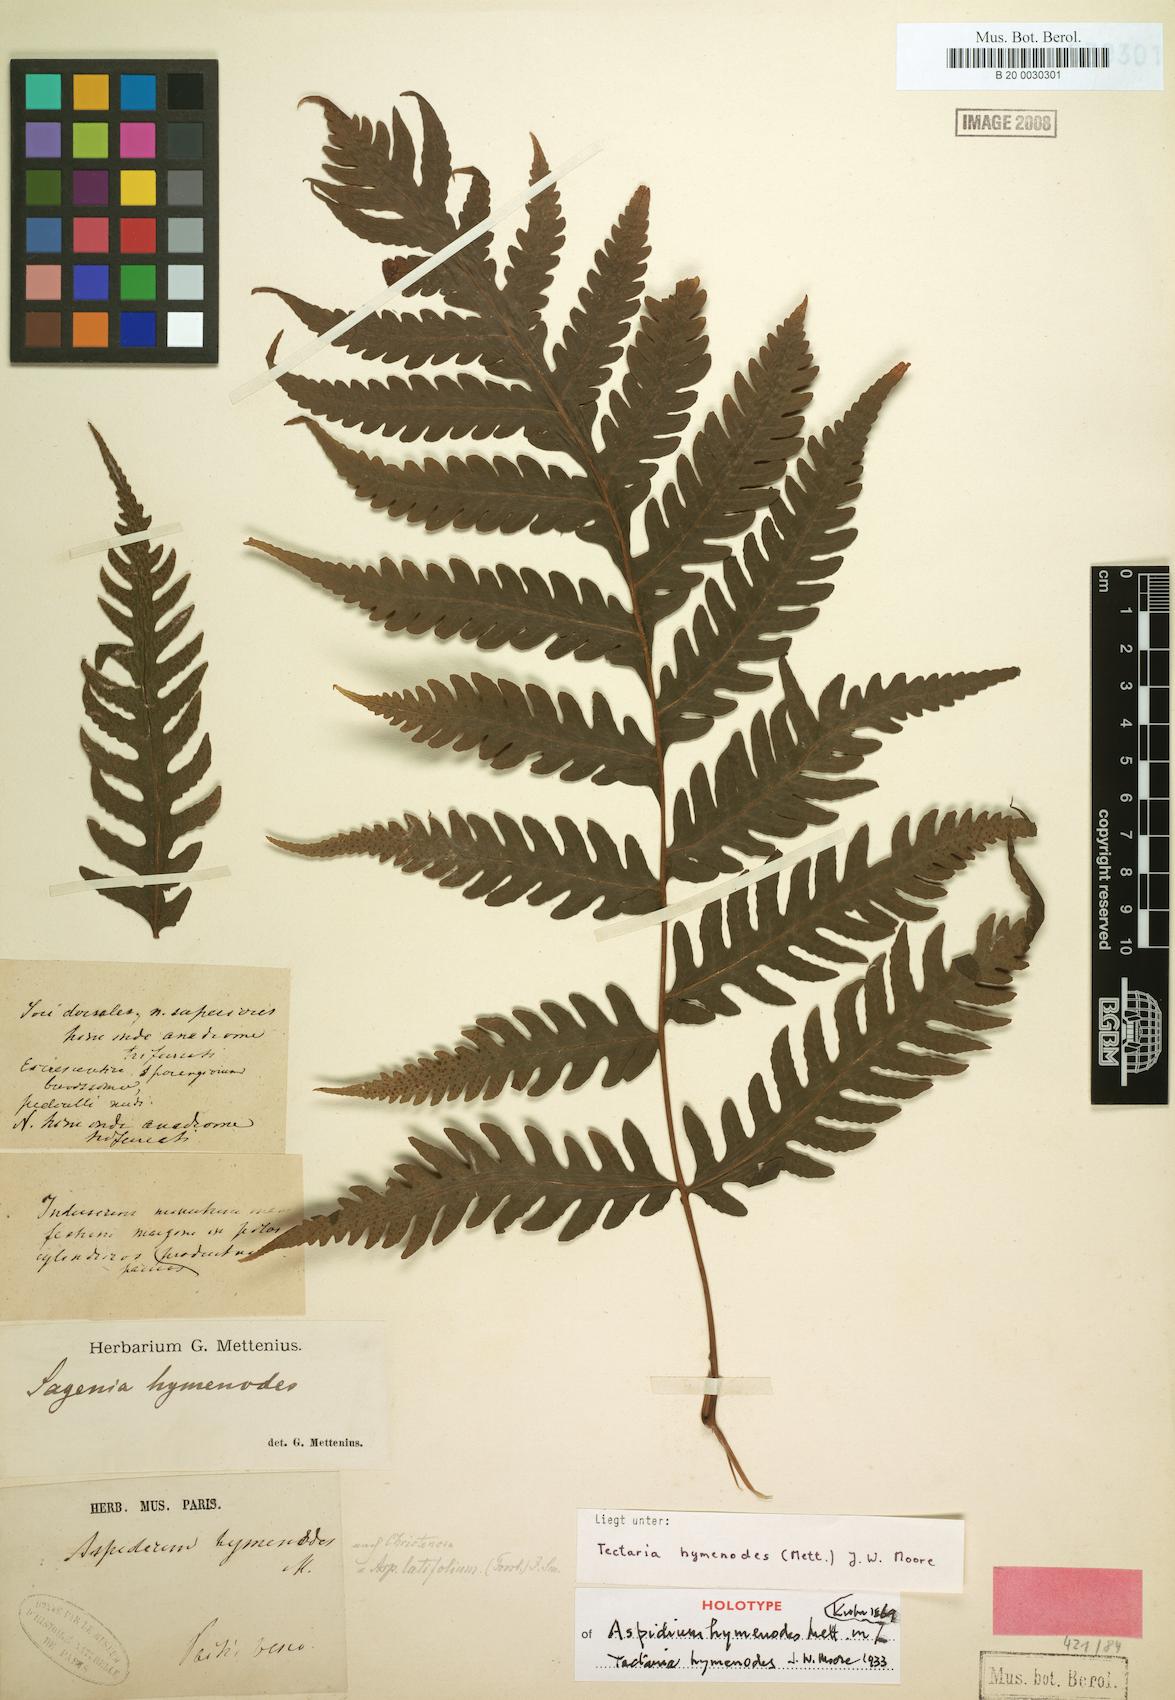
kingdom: Plantae
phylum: Tracheophyta
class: Polypodiopsida
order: Polypodiales
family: Tectariaceae
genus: Tectaria
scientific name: Tectaria hymenodes
